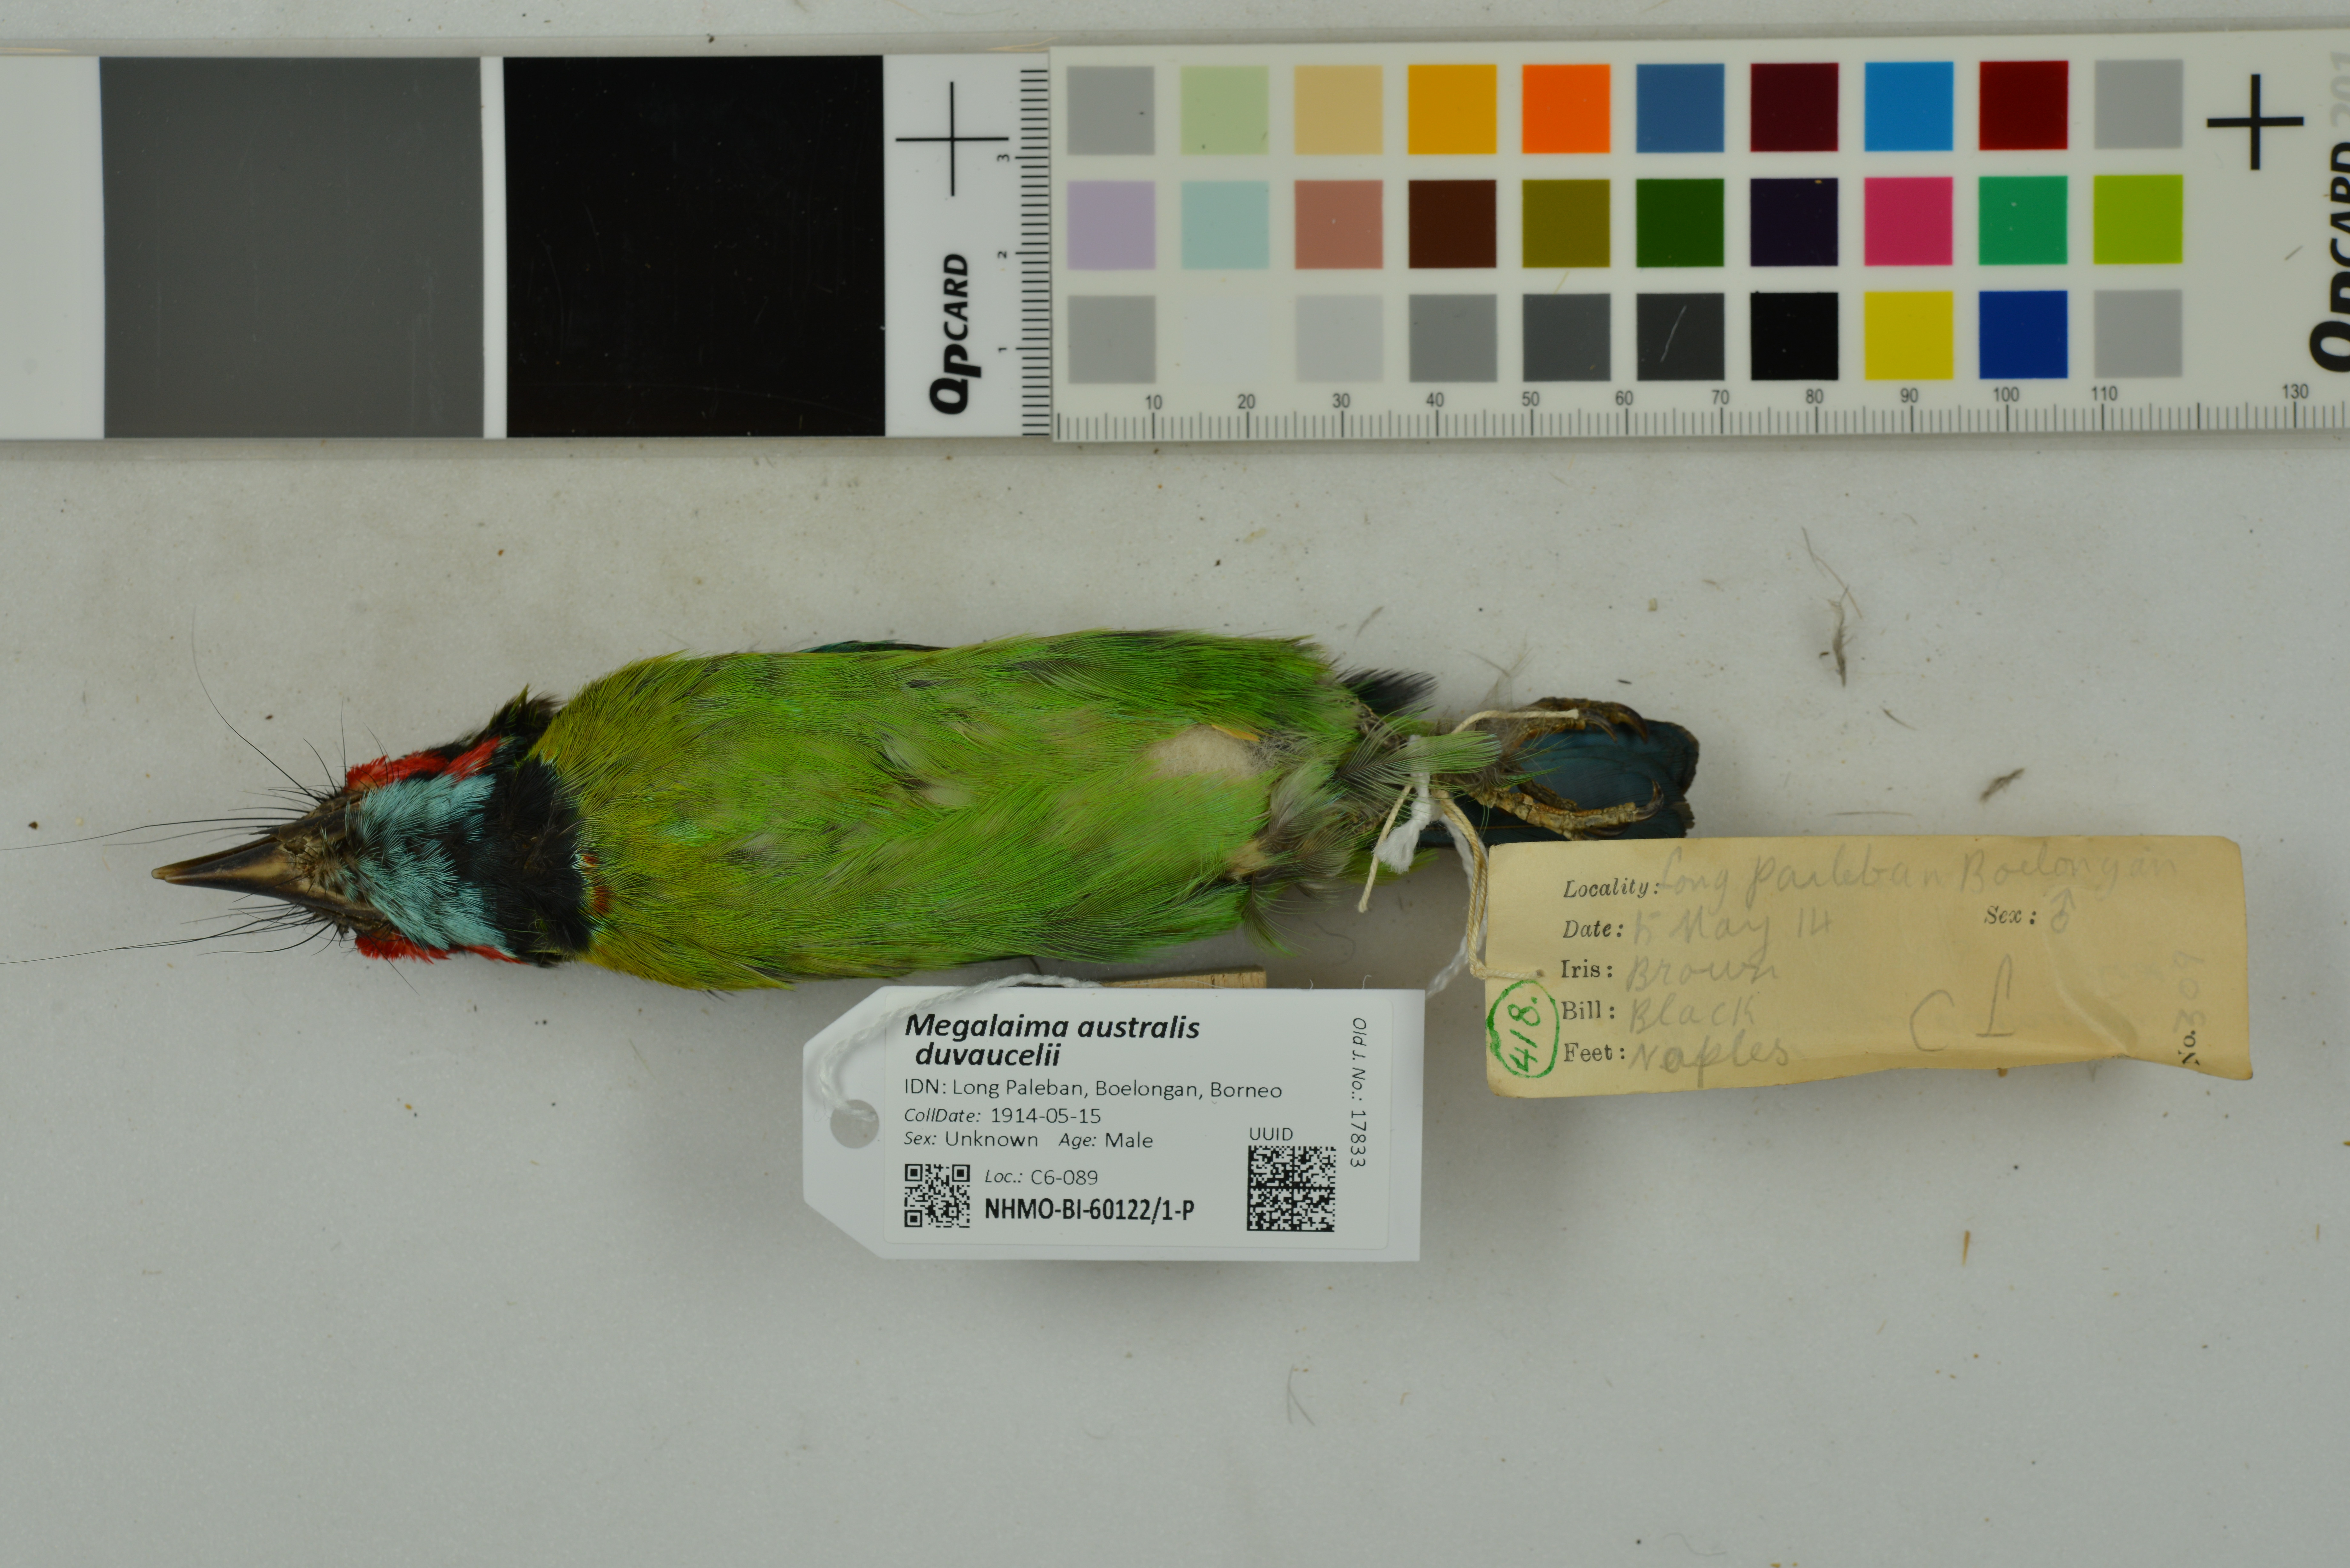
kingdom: Animalia
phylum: Chordata
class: Aves
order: Piciformes
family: Megalaimidae
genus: Psilopogon
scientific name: Psilopogon duvaucelii
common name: Blue-eared barbet
